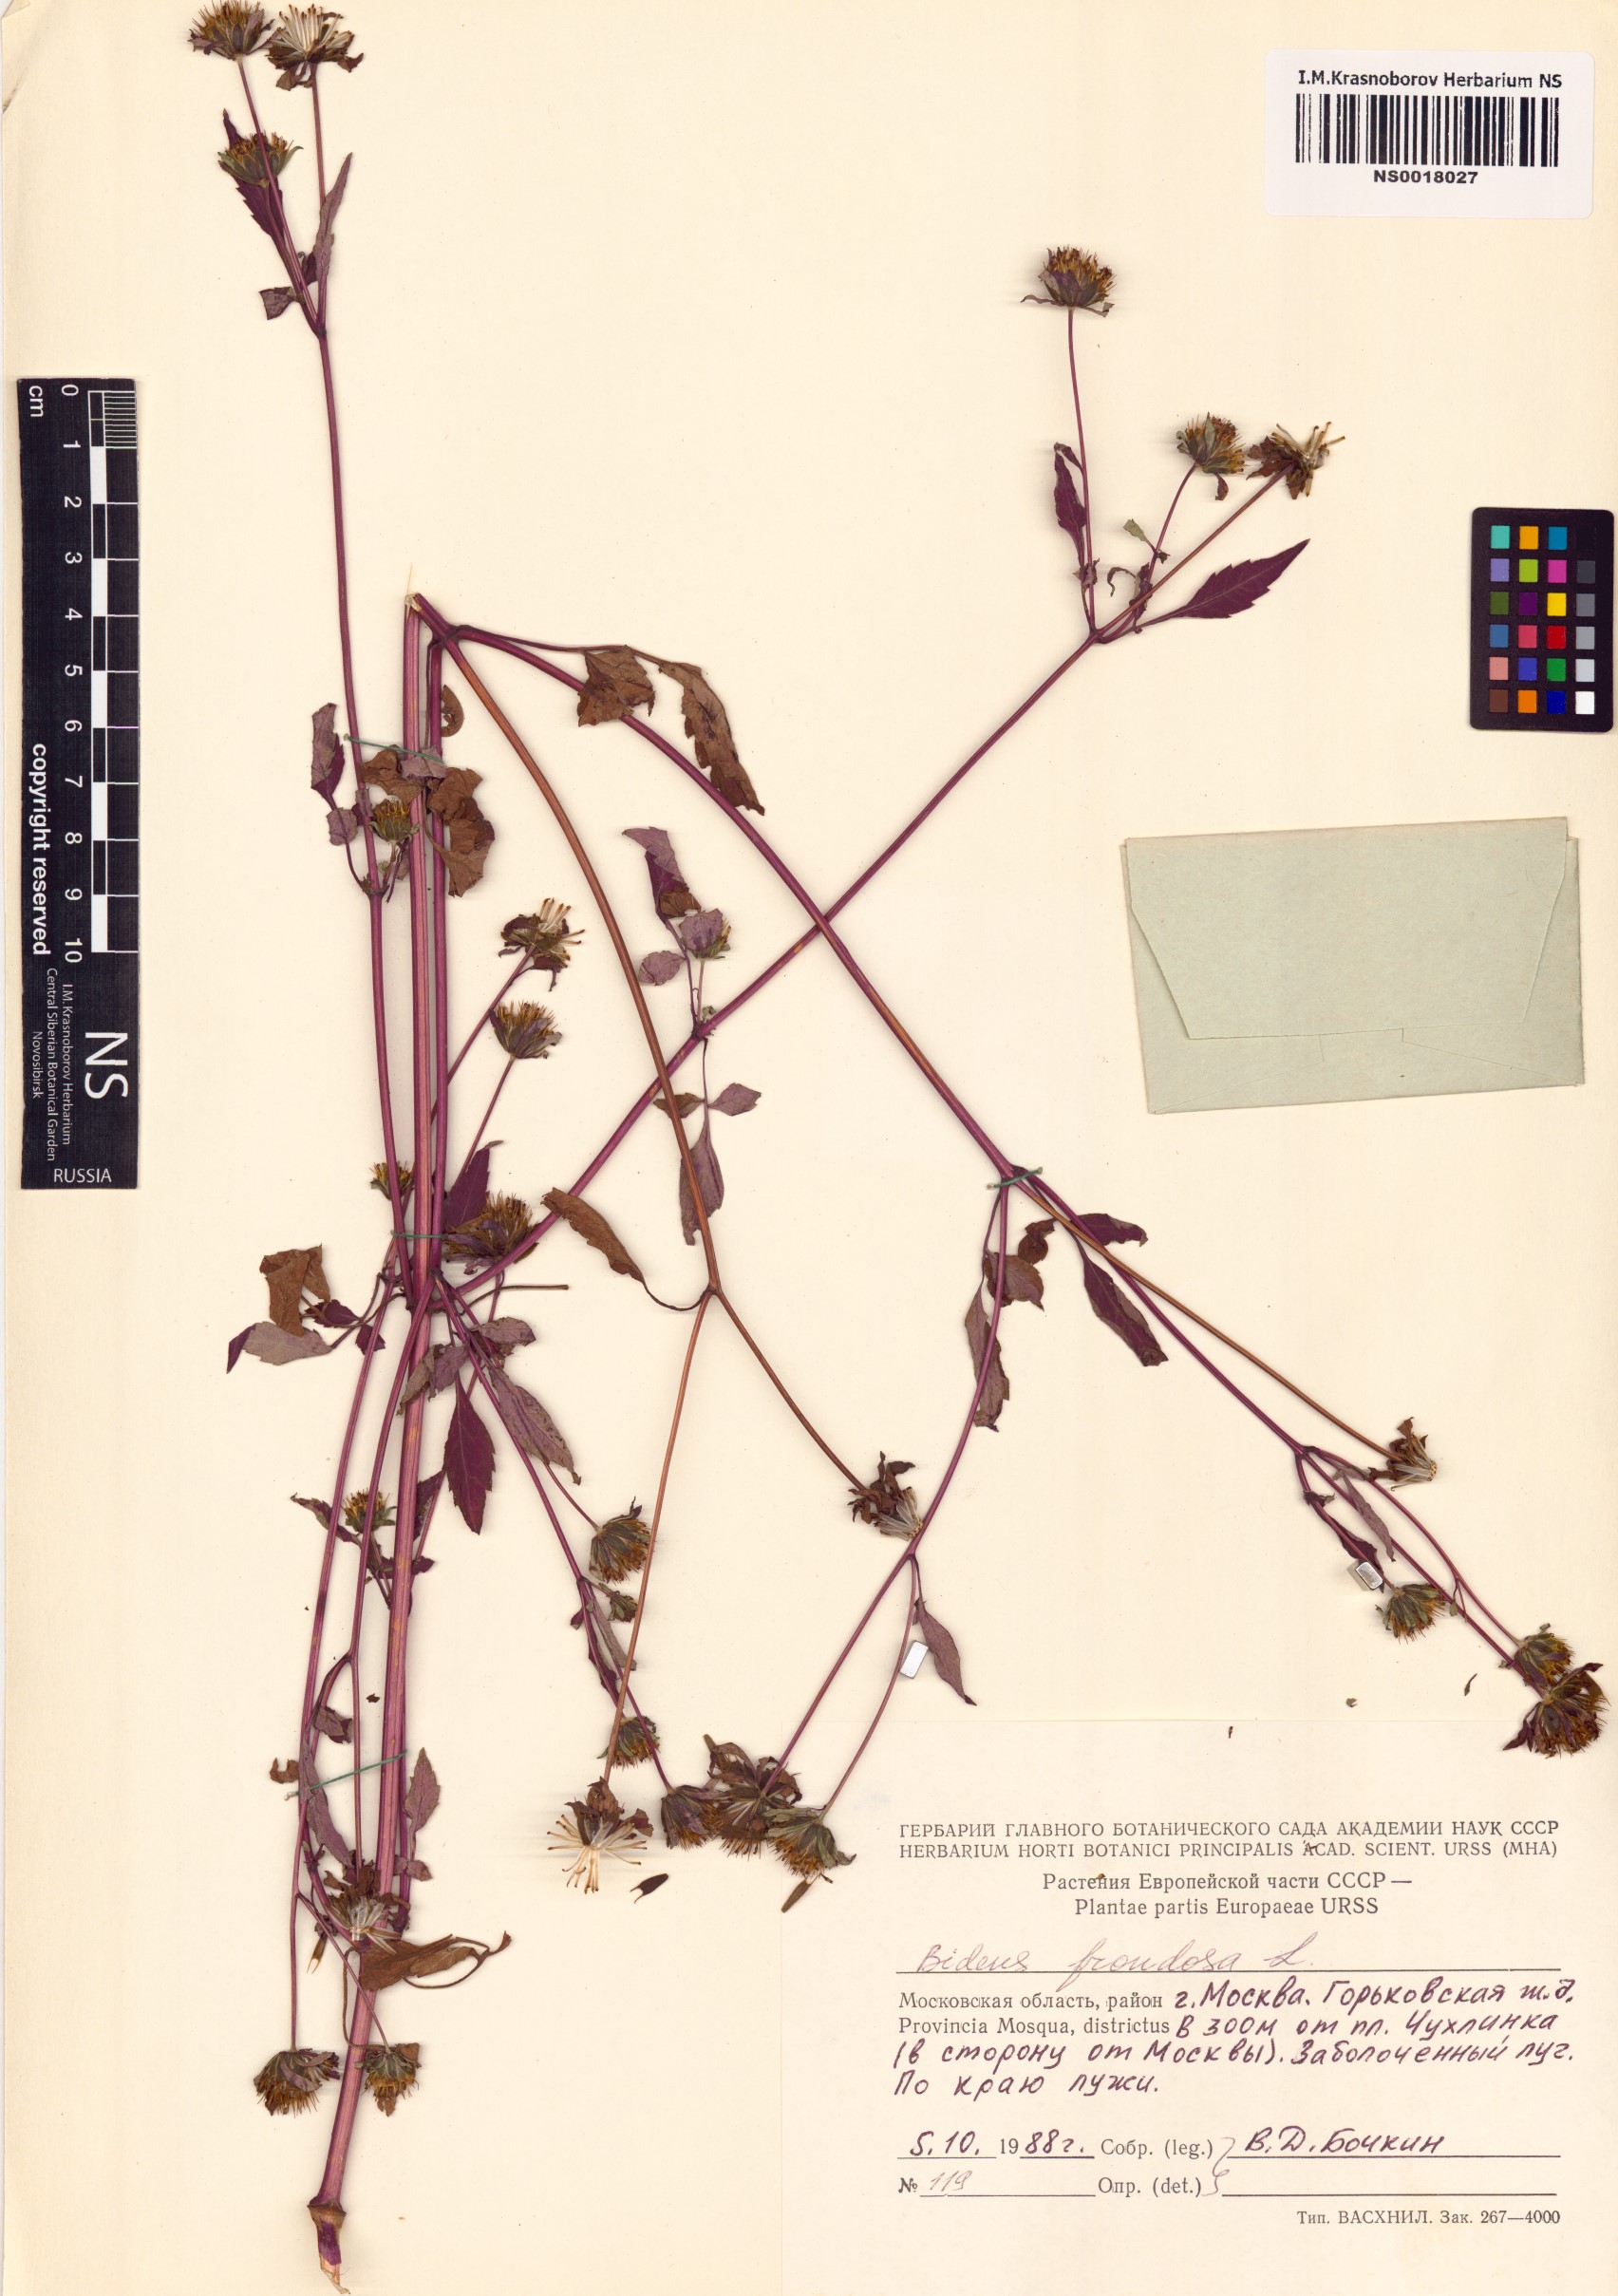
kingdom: Plantae
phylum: Tracheophyta
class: Magnoliopsida
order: Asterales
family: Asteraceae
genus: Bidens
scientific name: Bidens frondosa
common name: Beggarticks
